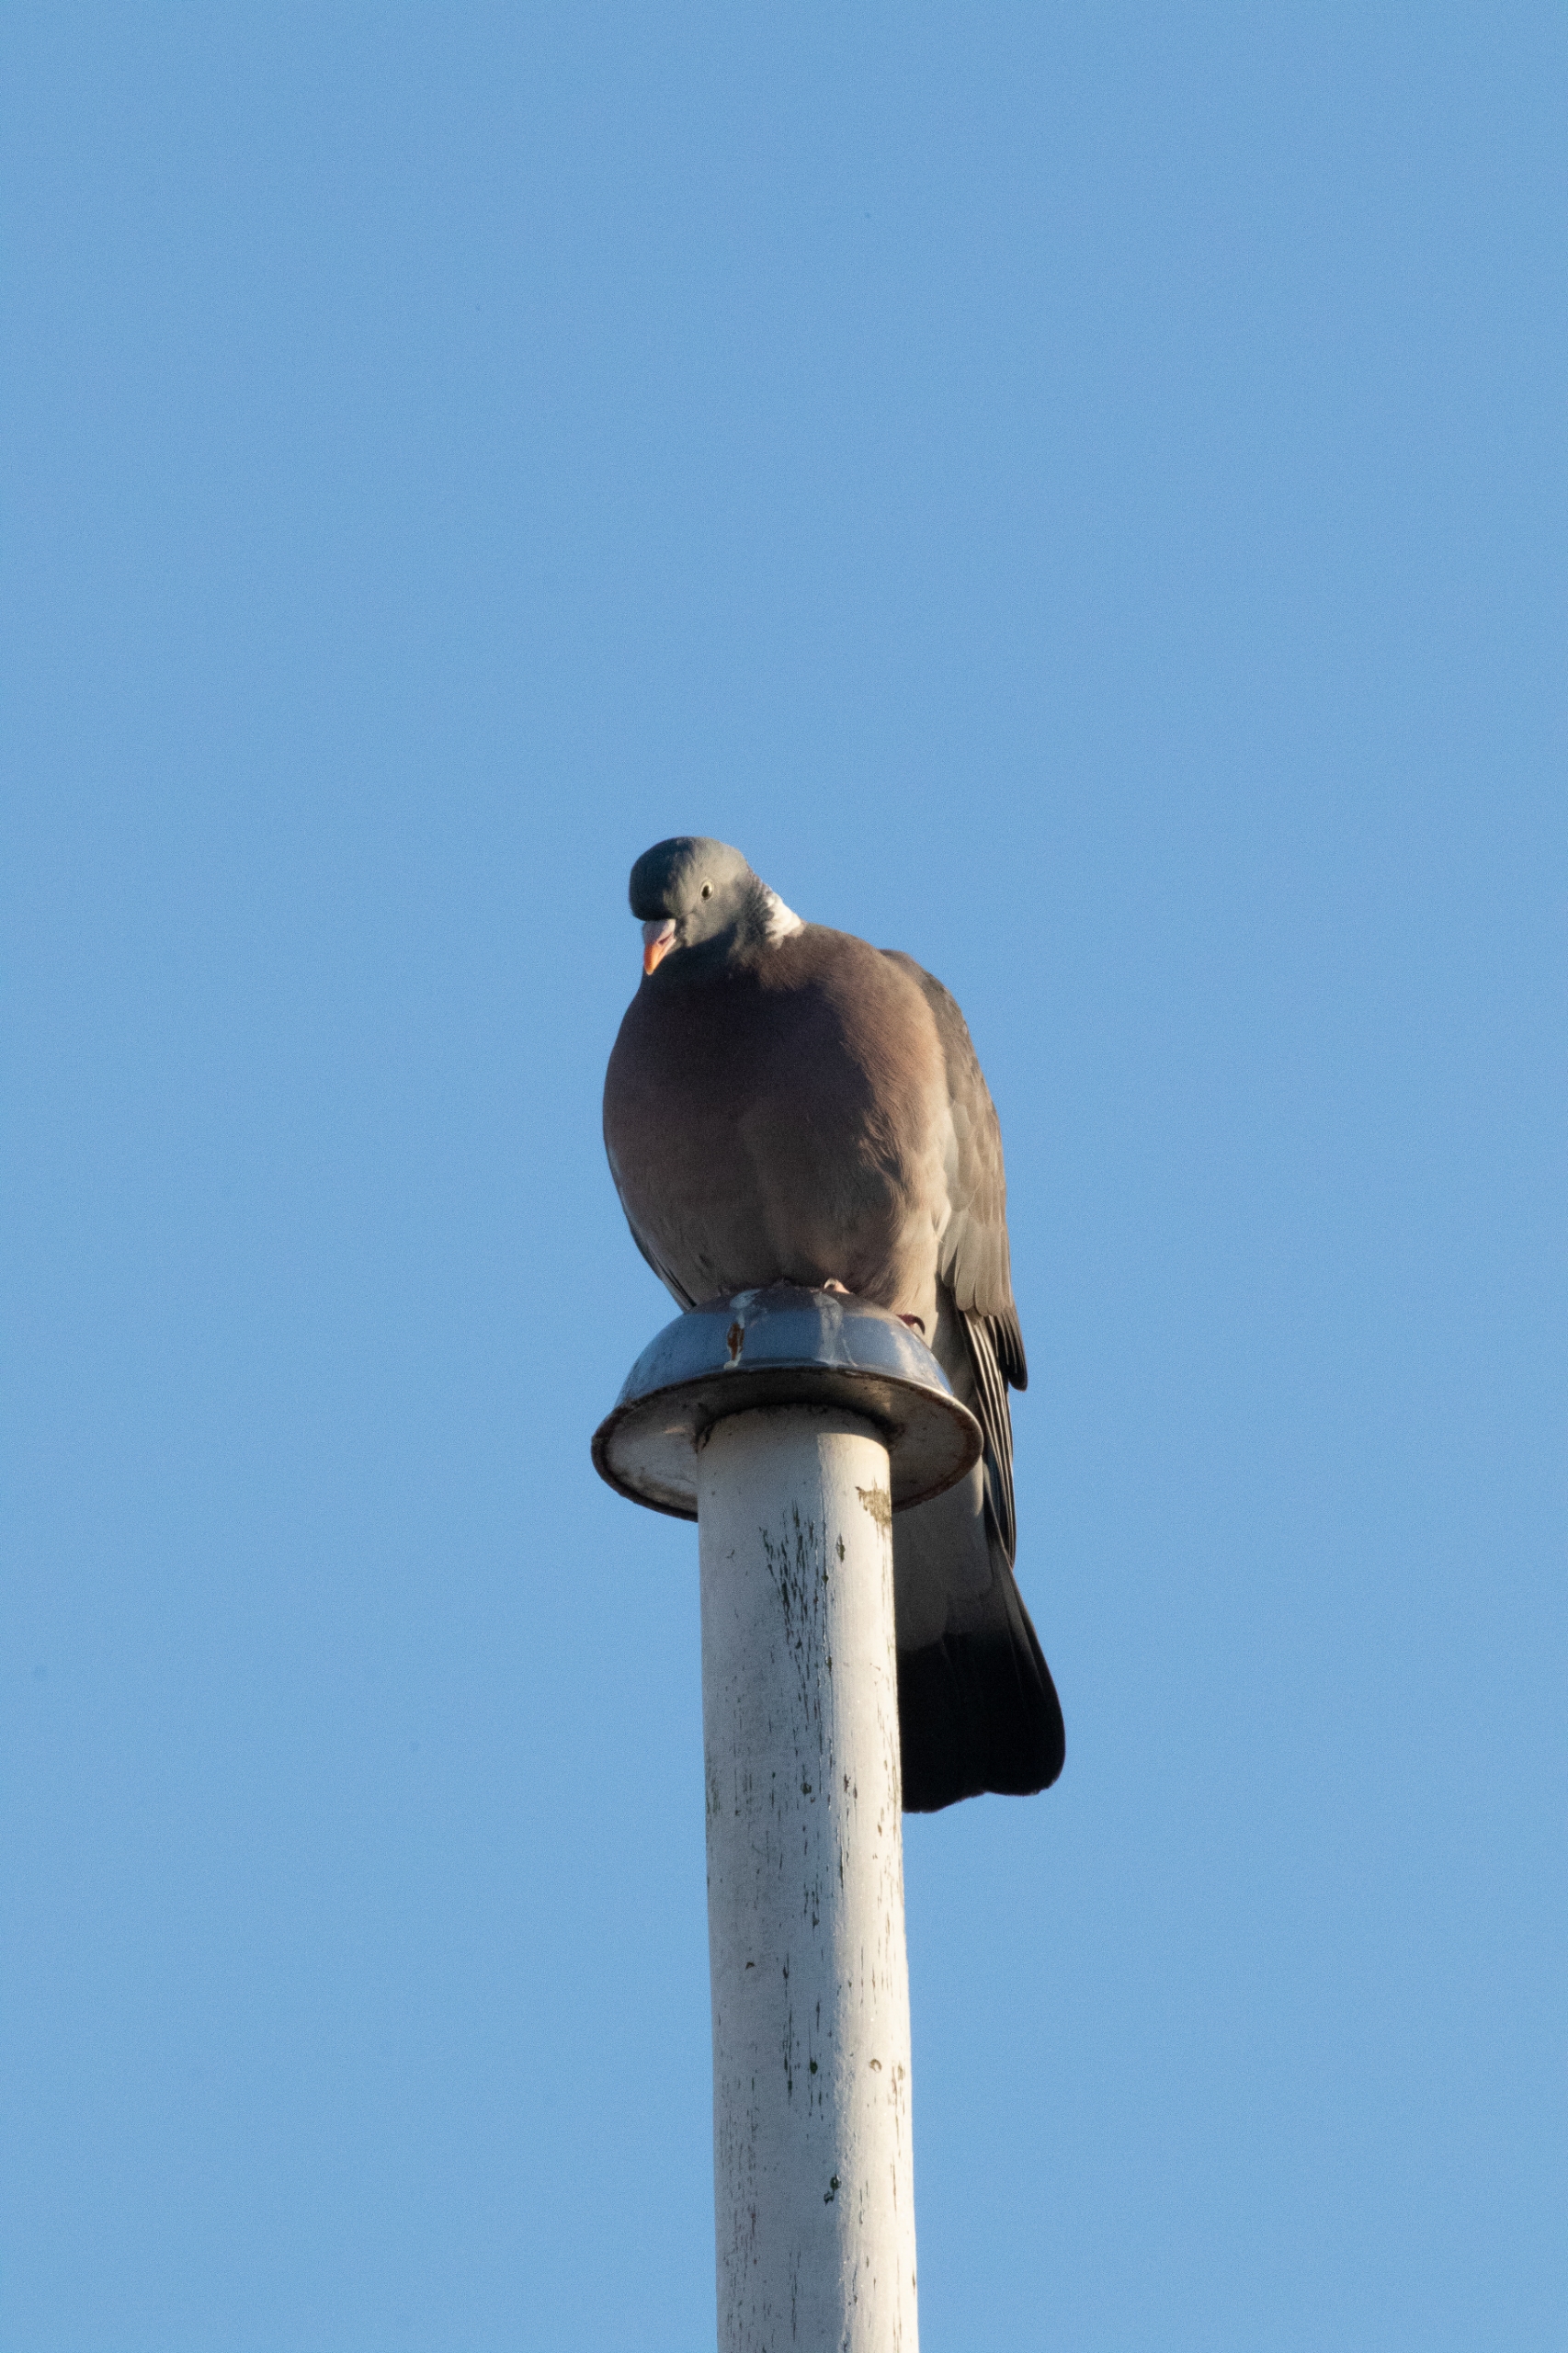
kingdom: Animalia
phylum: Chordata
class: Aves
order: Columbiformes
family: Columbidae
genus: Columba
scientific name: Columba palumbus
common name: Ringdue
